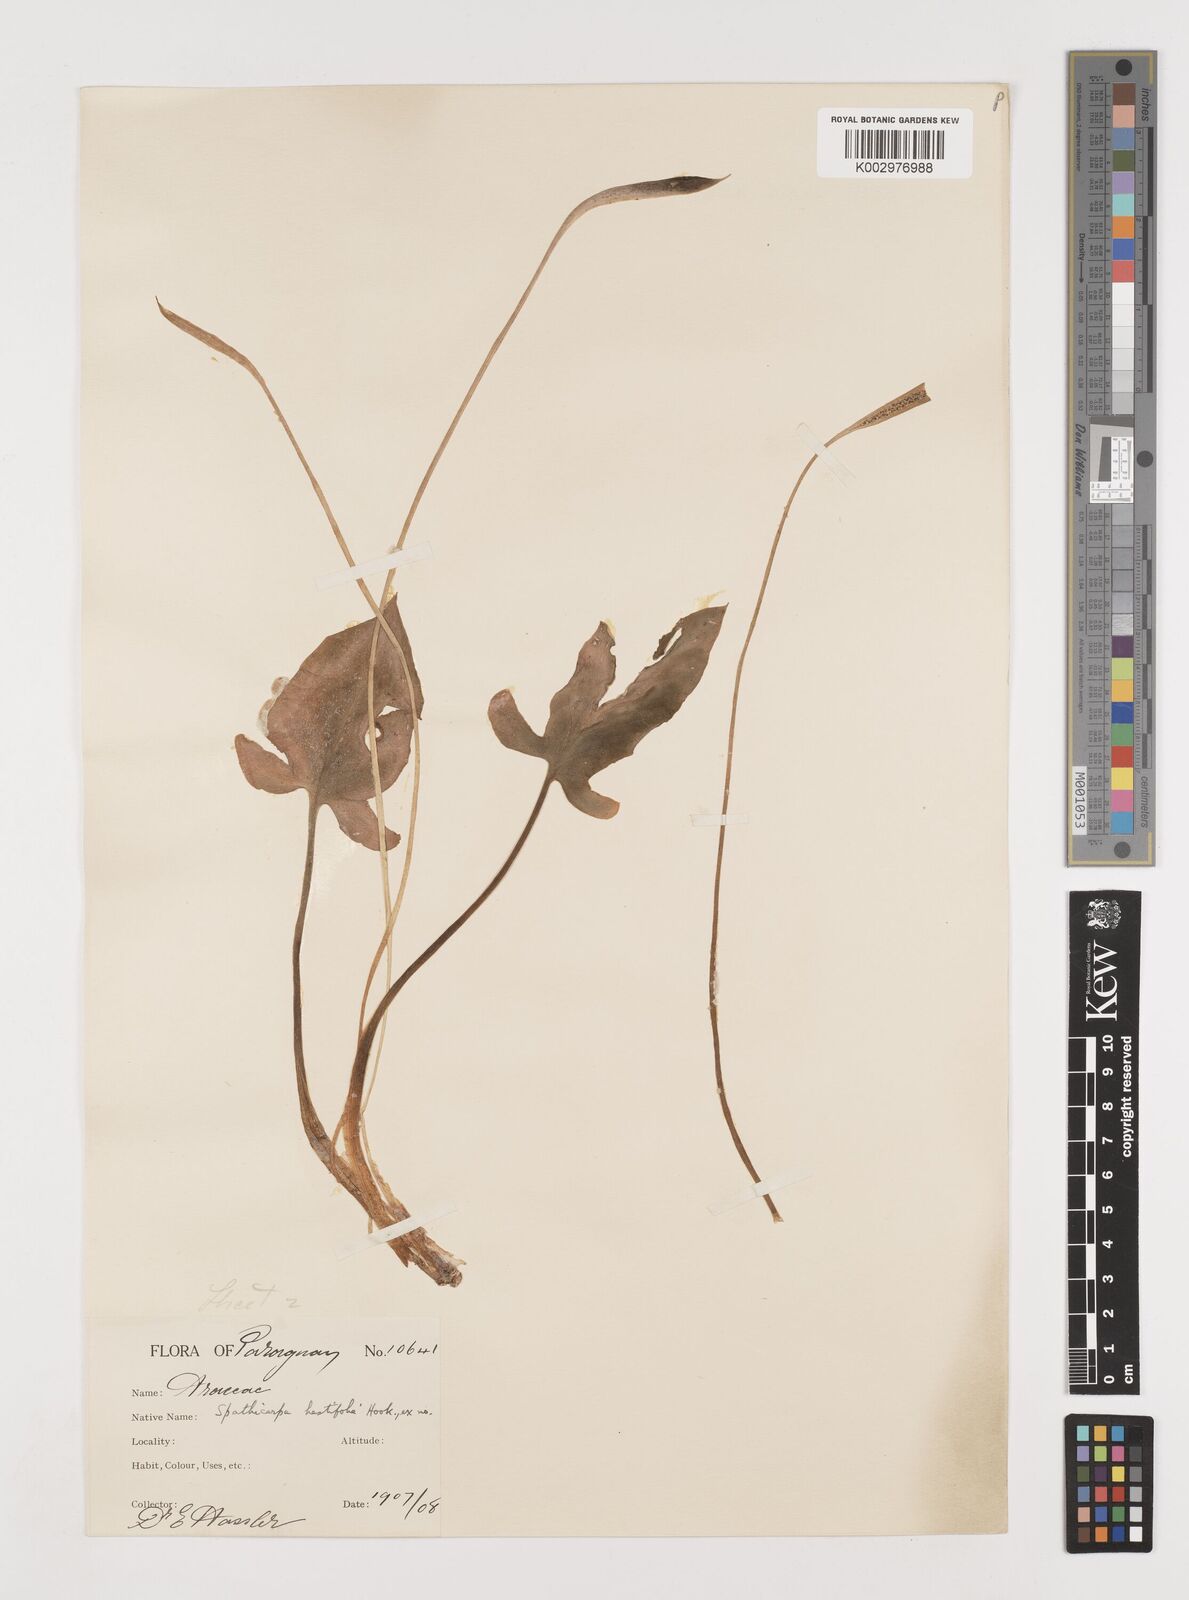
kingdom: Plantae
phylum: Tracheophyta
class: Liliopsida
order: Alismatales
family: Araceae
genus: Spathicarpa
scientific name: Spathicarpa hastifolia
